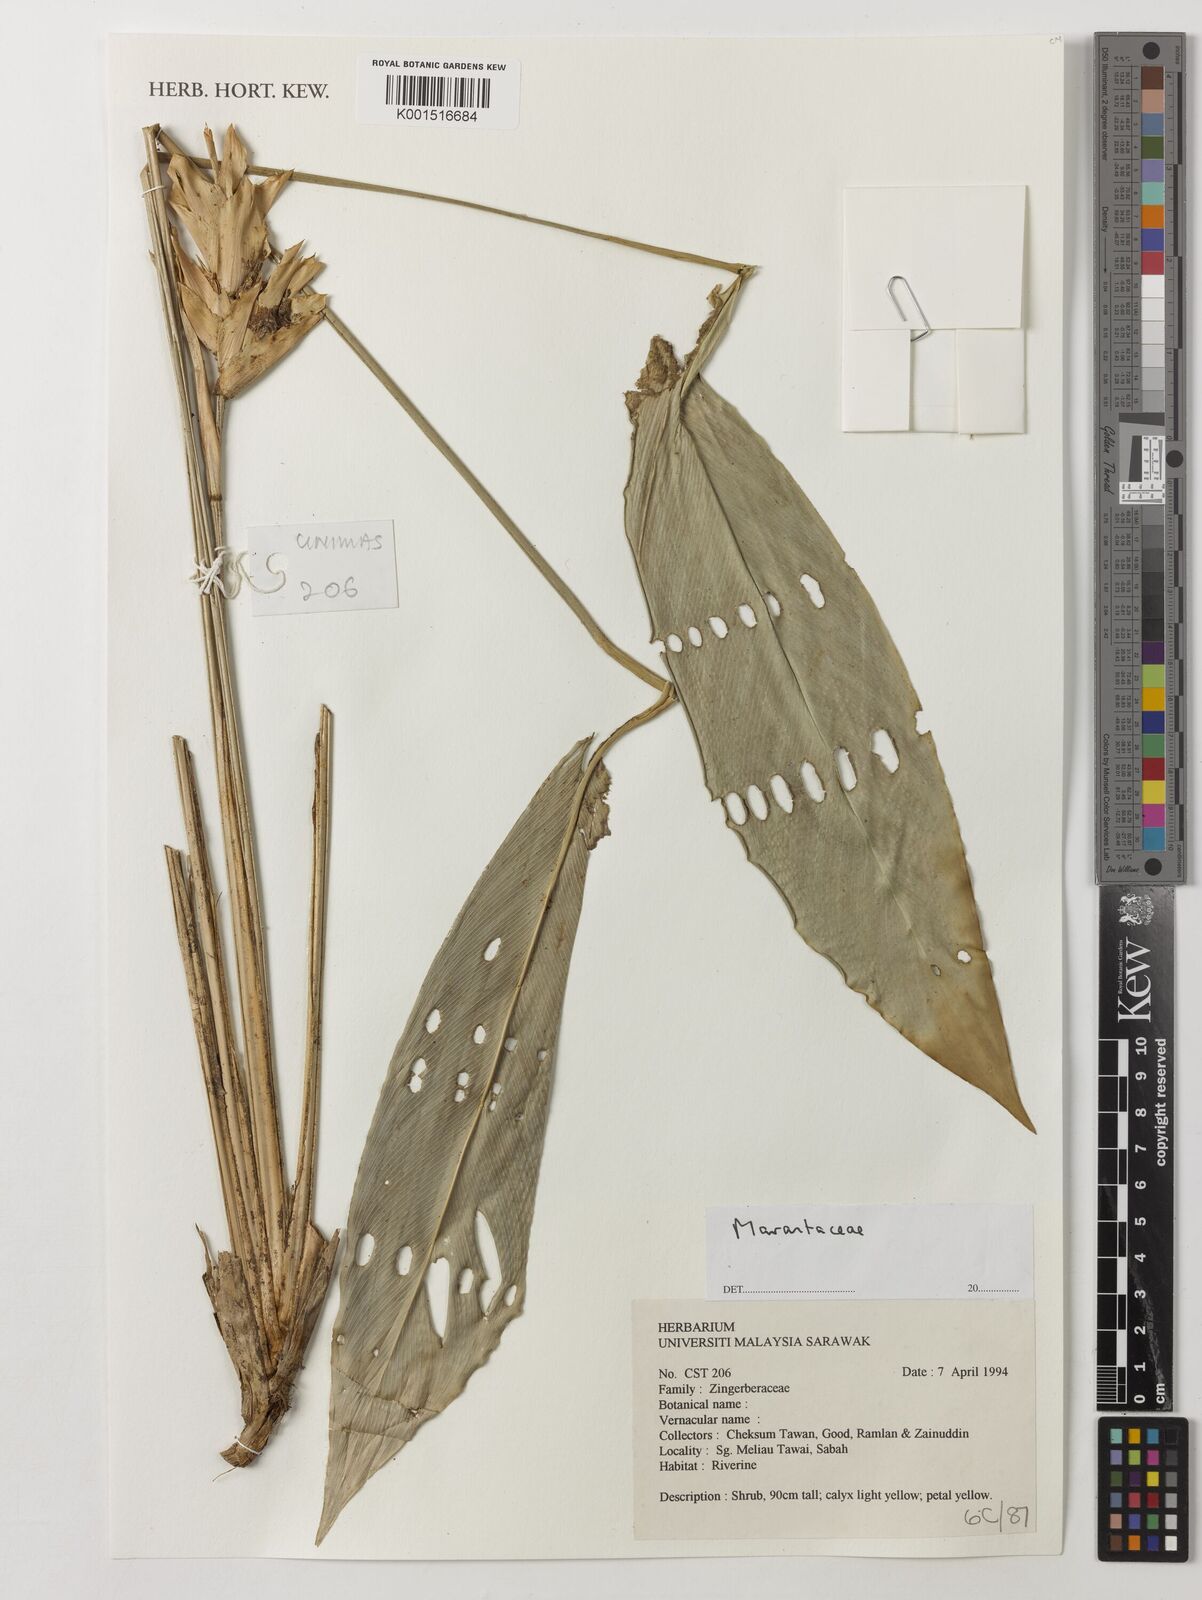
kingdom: Plantae
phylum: Tracheophyta
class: Liliopsida
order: Zingiberales
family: Marantaceae
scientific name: Marantaceae
